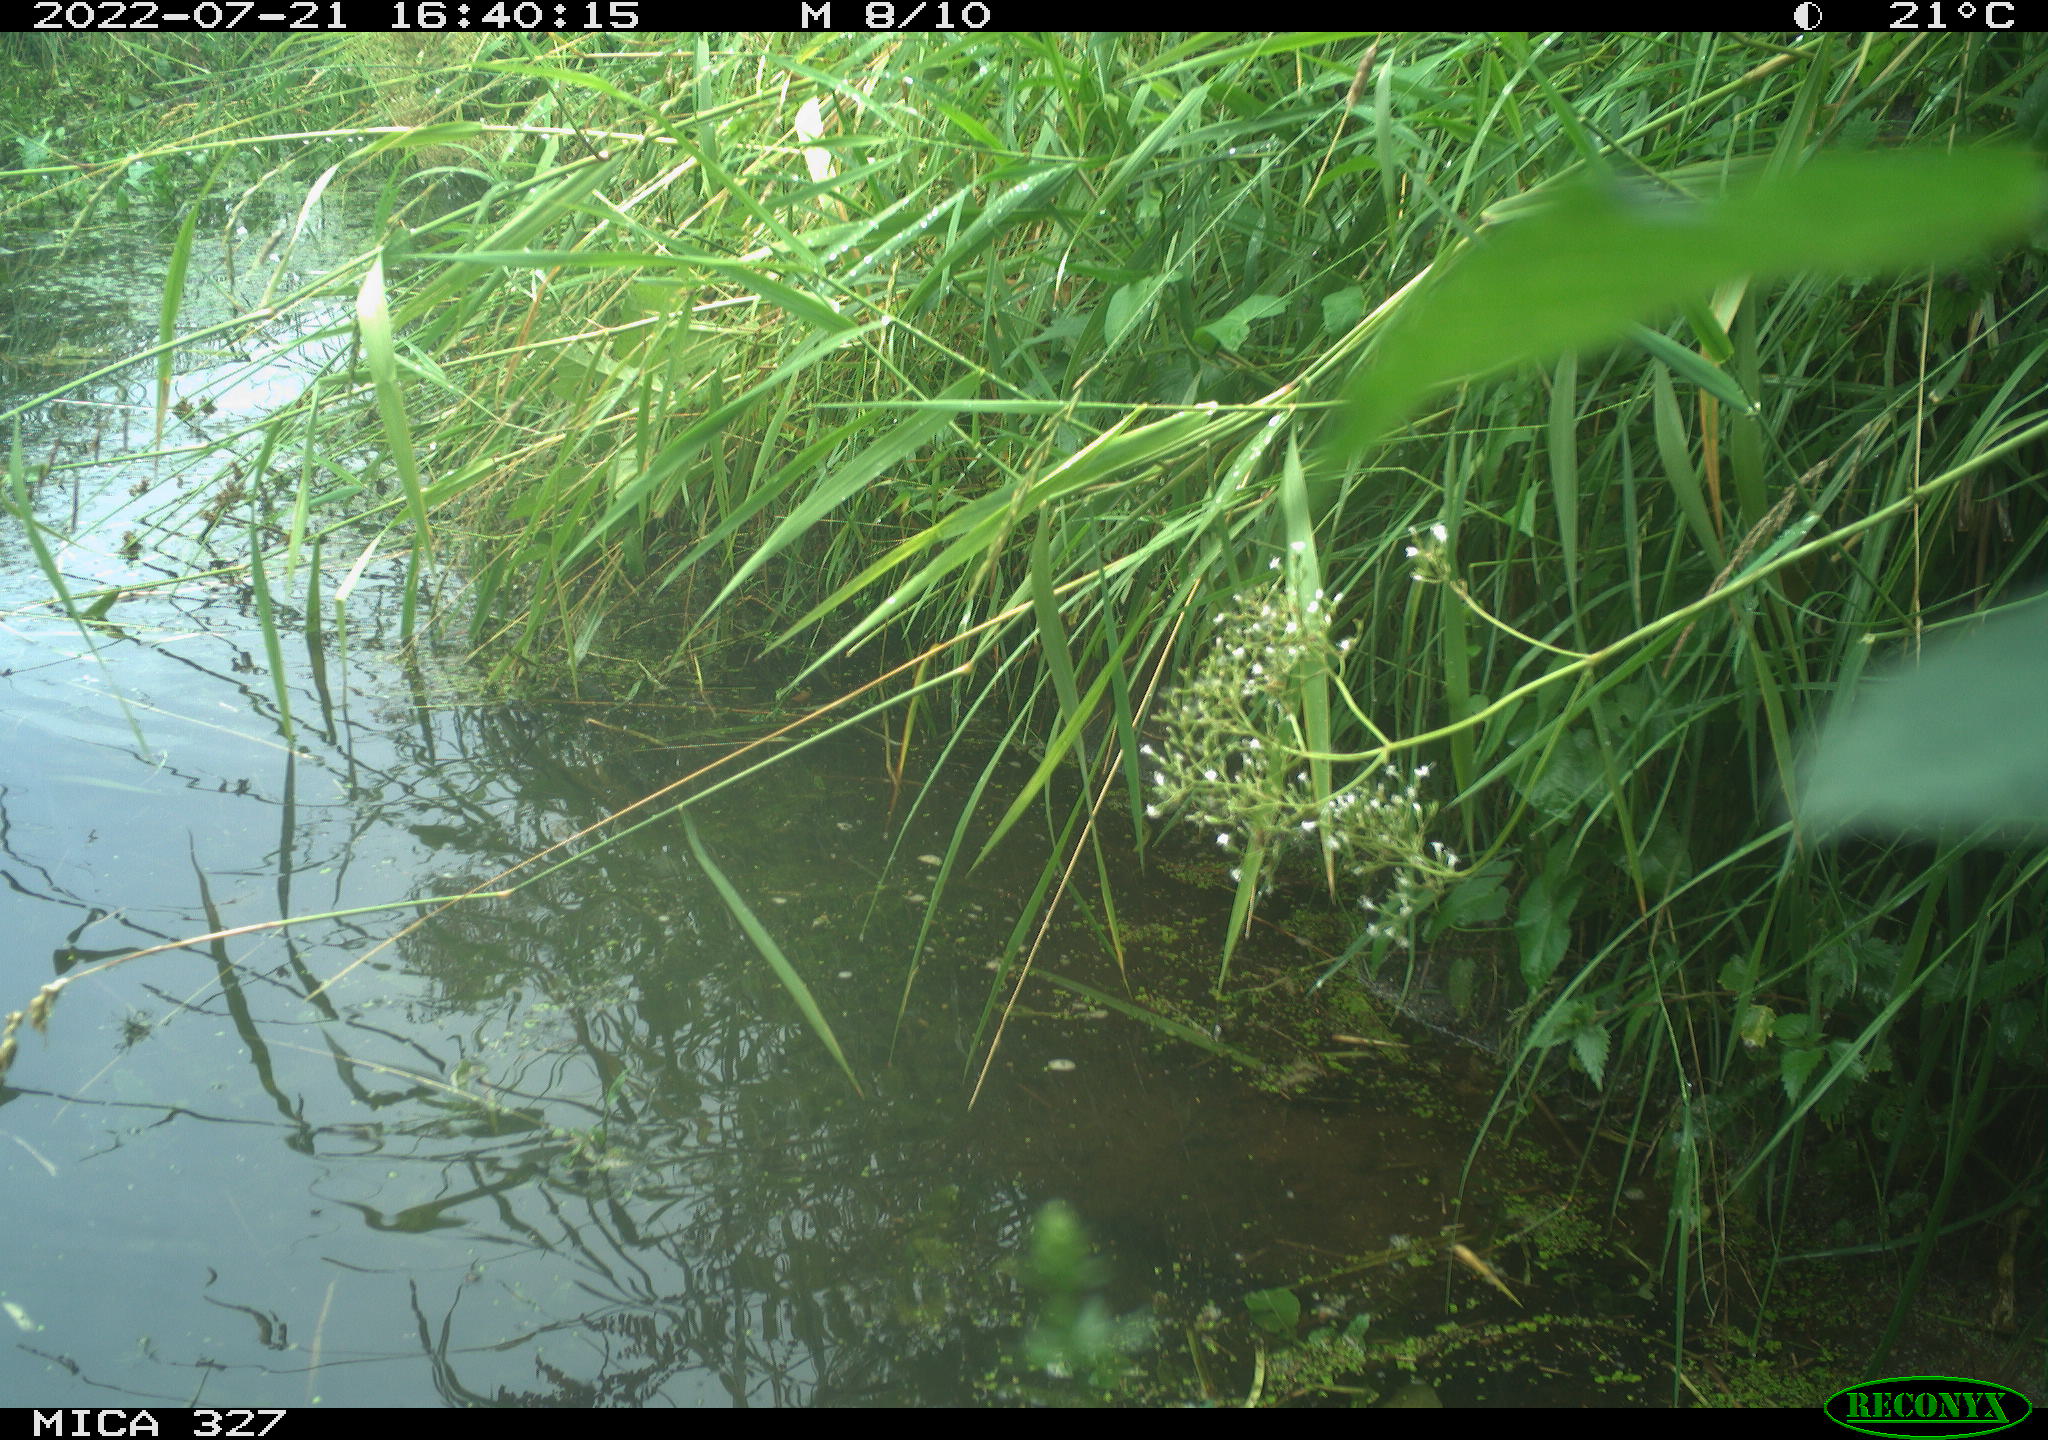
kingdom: Animalia
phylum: Chordata
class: Aves
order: Gruiformes
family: Rallidae
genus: Gallinula
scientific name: Gallinula chloropus
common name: Common moorhen
